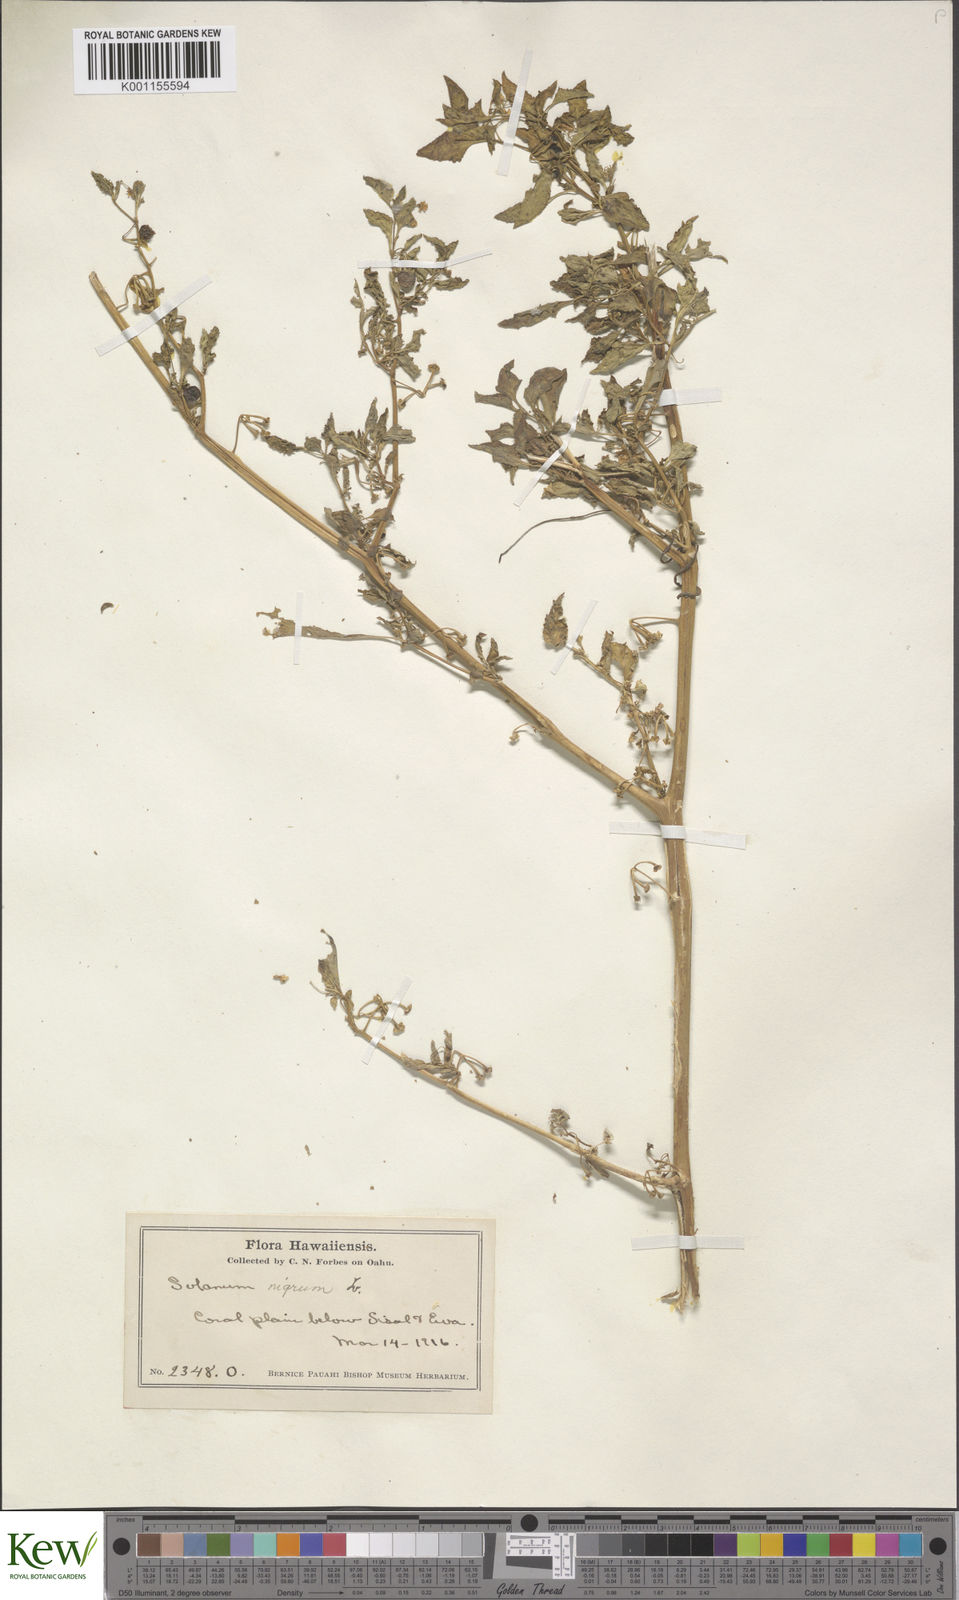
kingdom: Plantae
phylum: Tracheophyta
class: Magnoliopsida
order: Solanales
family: Solanaceae
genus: Solanum
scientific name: Solanum americanum
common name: American black nightshade
